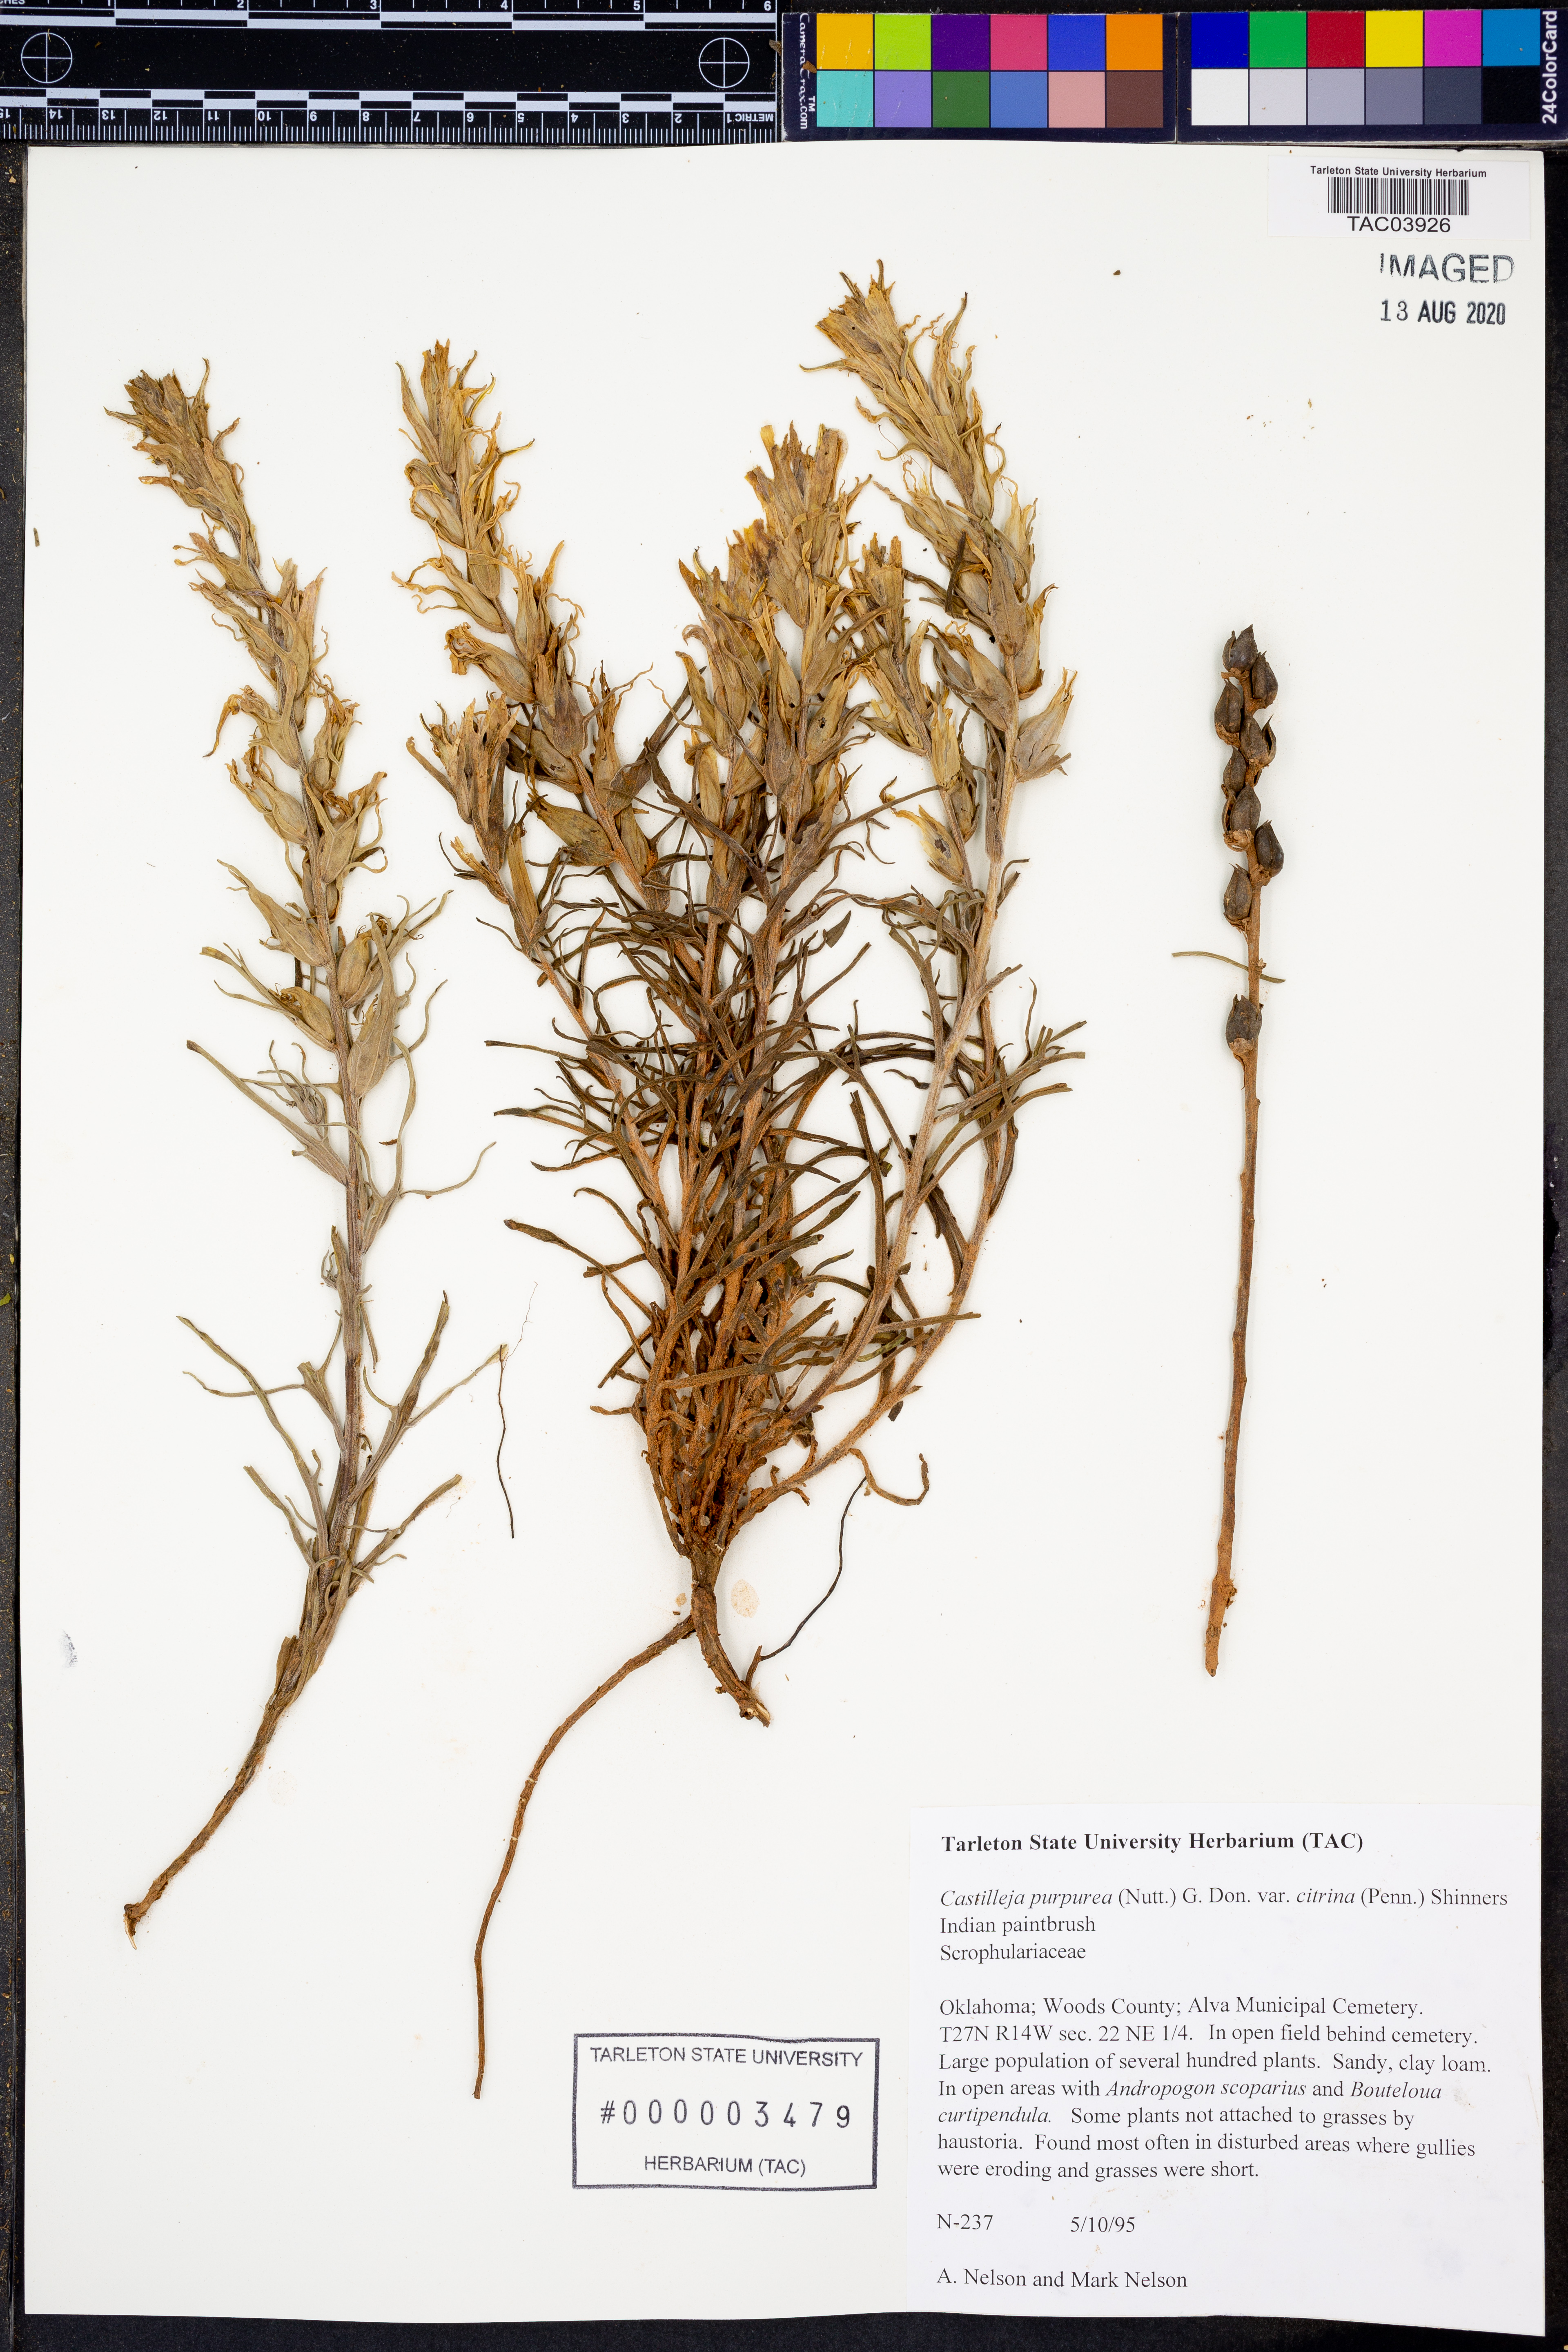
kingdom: Plantae
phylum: Tracheophyta
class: Magnoliopsida
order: Lamiales
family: Orobanchaceae
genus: Castilleja
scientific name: Castilleja citrina
